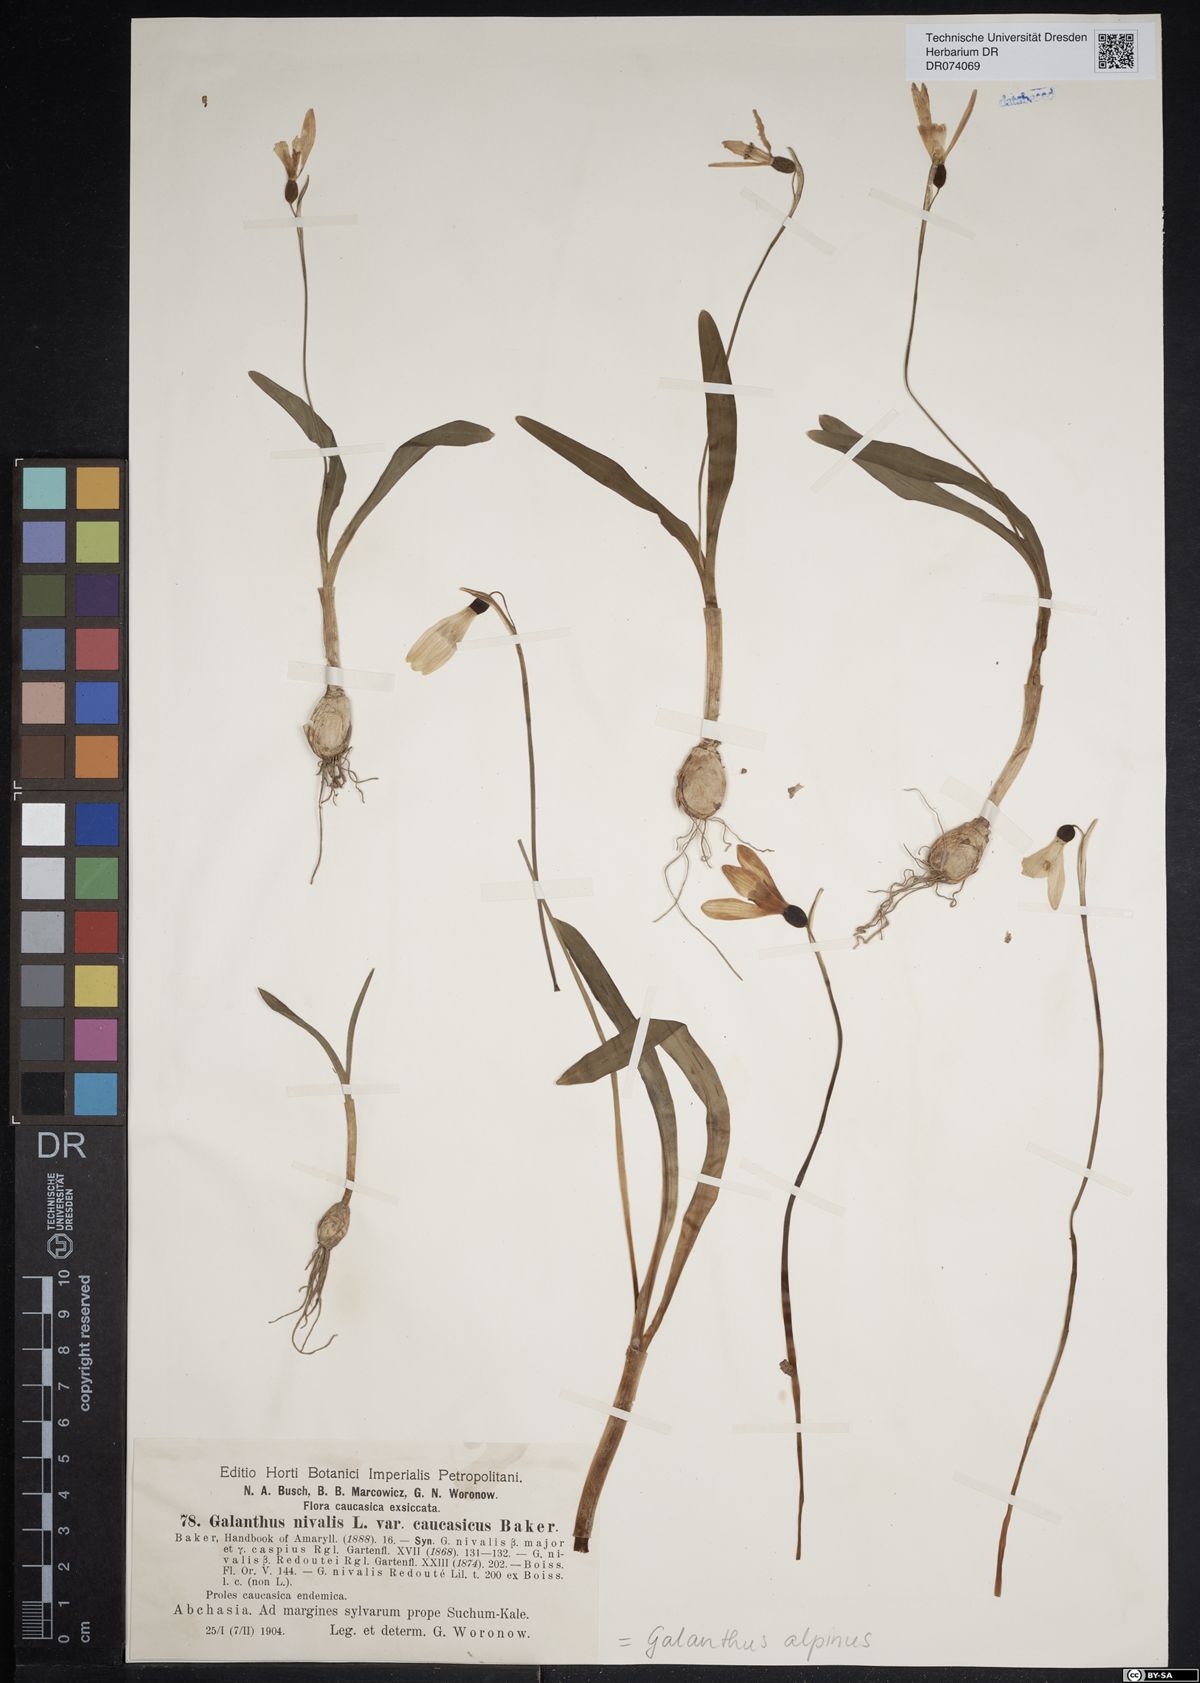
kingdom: Plantae
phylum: Tracheophyta
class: Liliopsida
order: Asparagales
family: Amaryllidaceae
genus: Galanthus
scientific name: Galanthus alpinus
